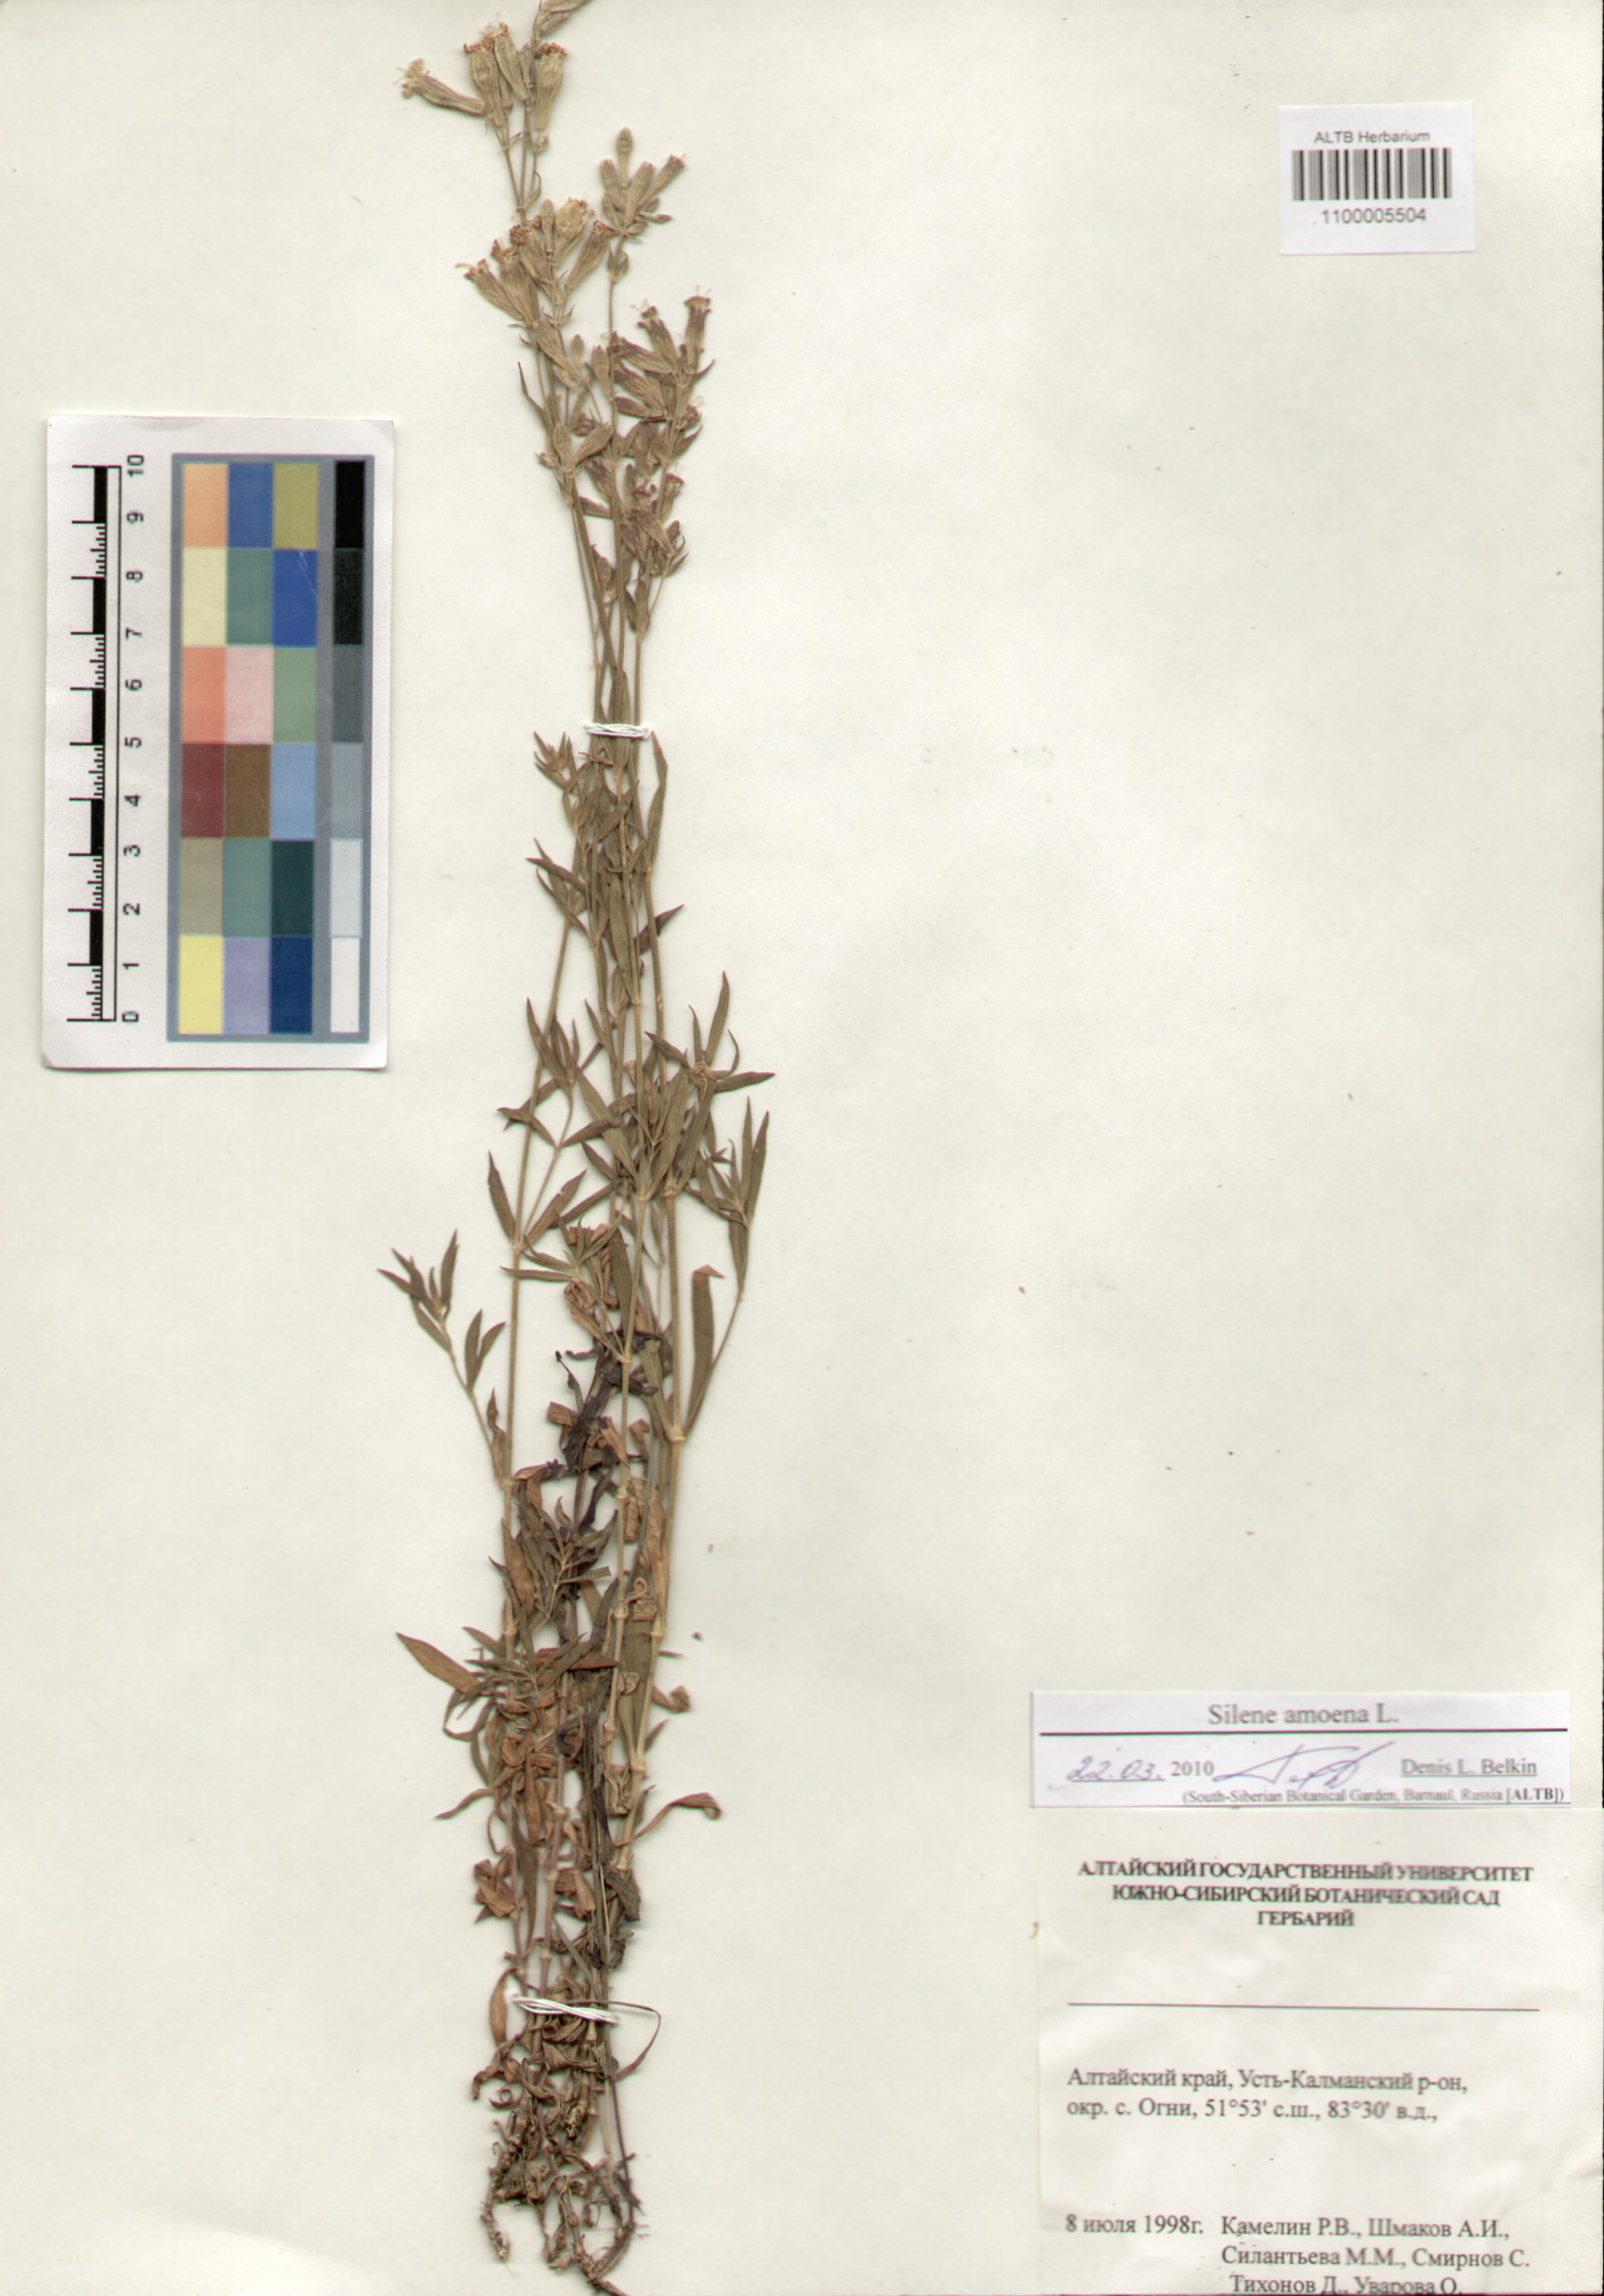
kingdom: Plantae
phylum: Tracheophyta
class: Magnoliopsida
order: Caryophyllales
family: Caryophyllaceae
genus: Silene
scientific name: Silene amoena
